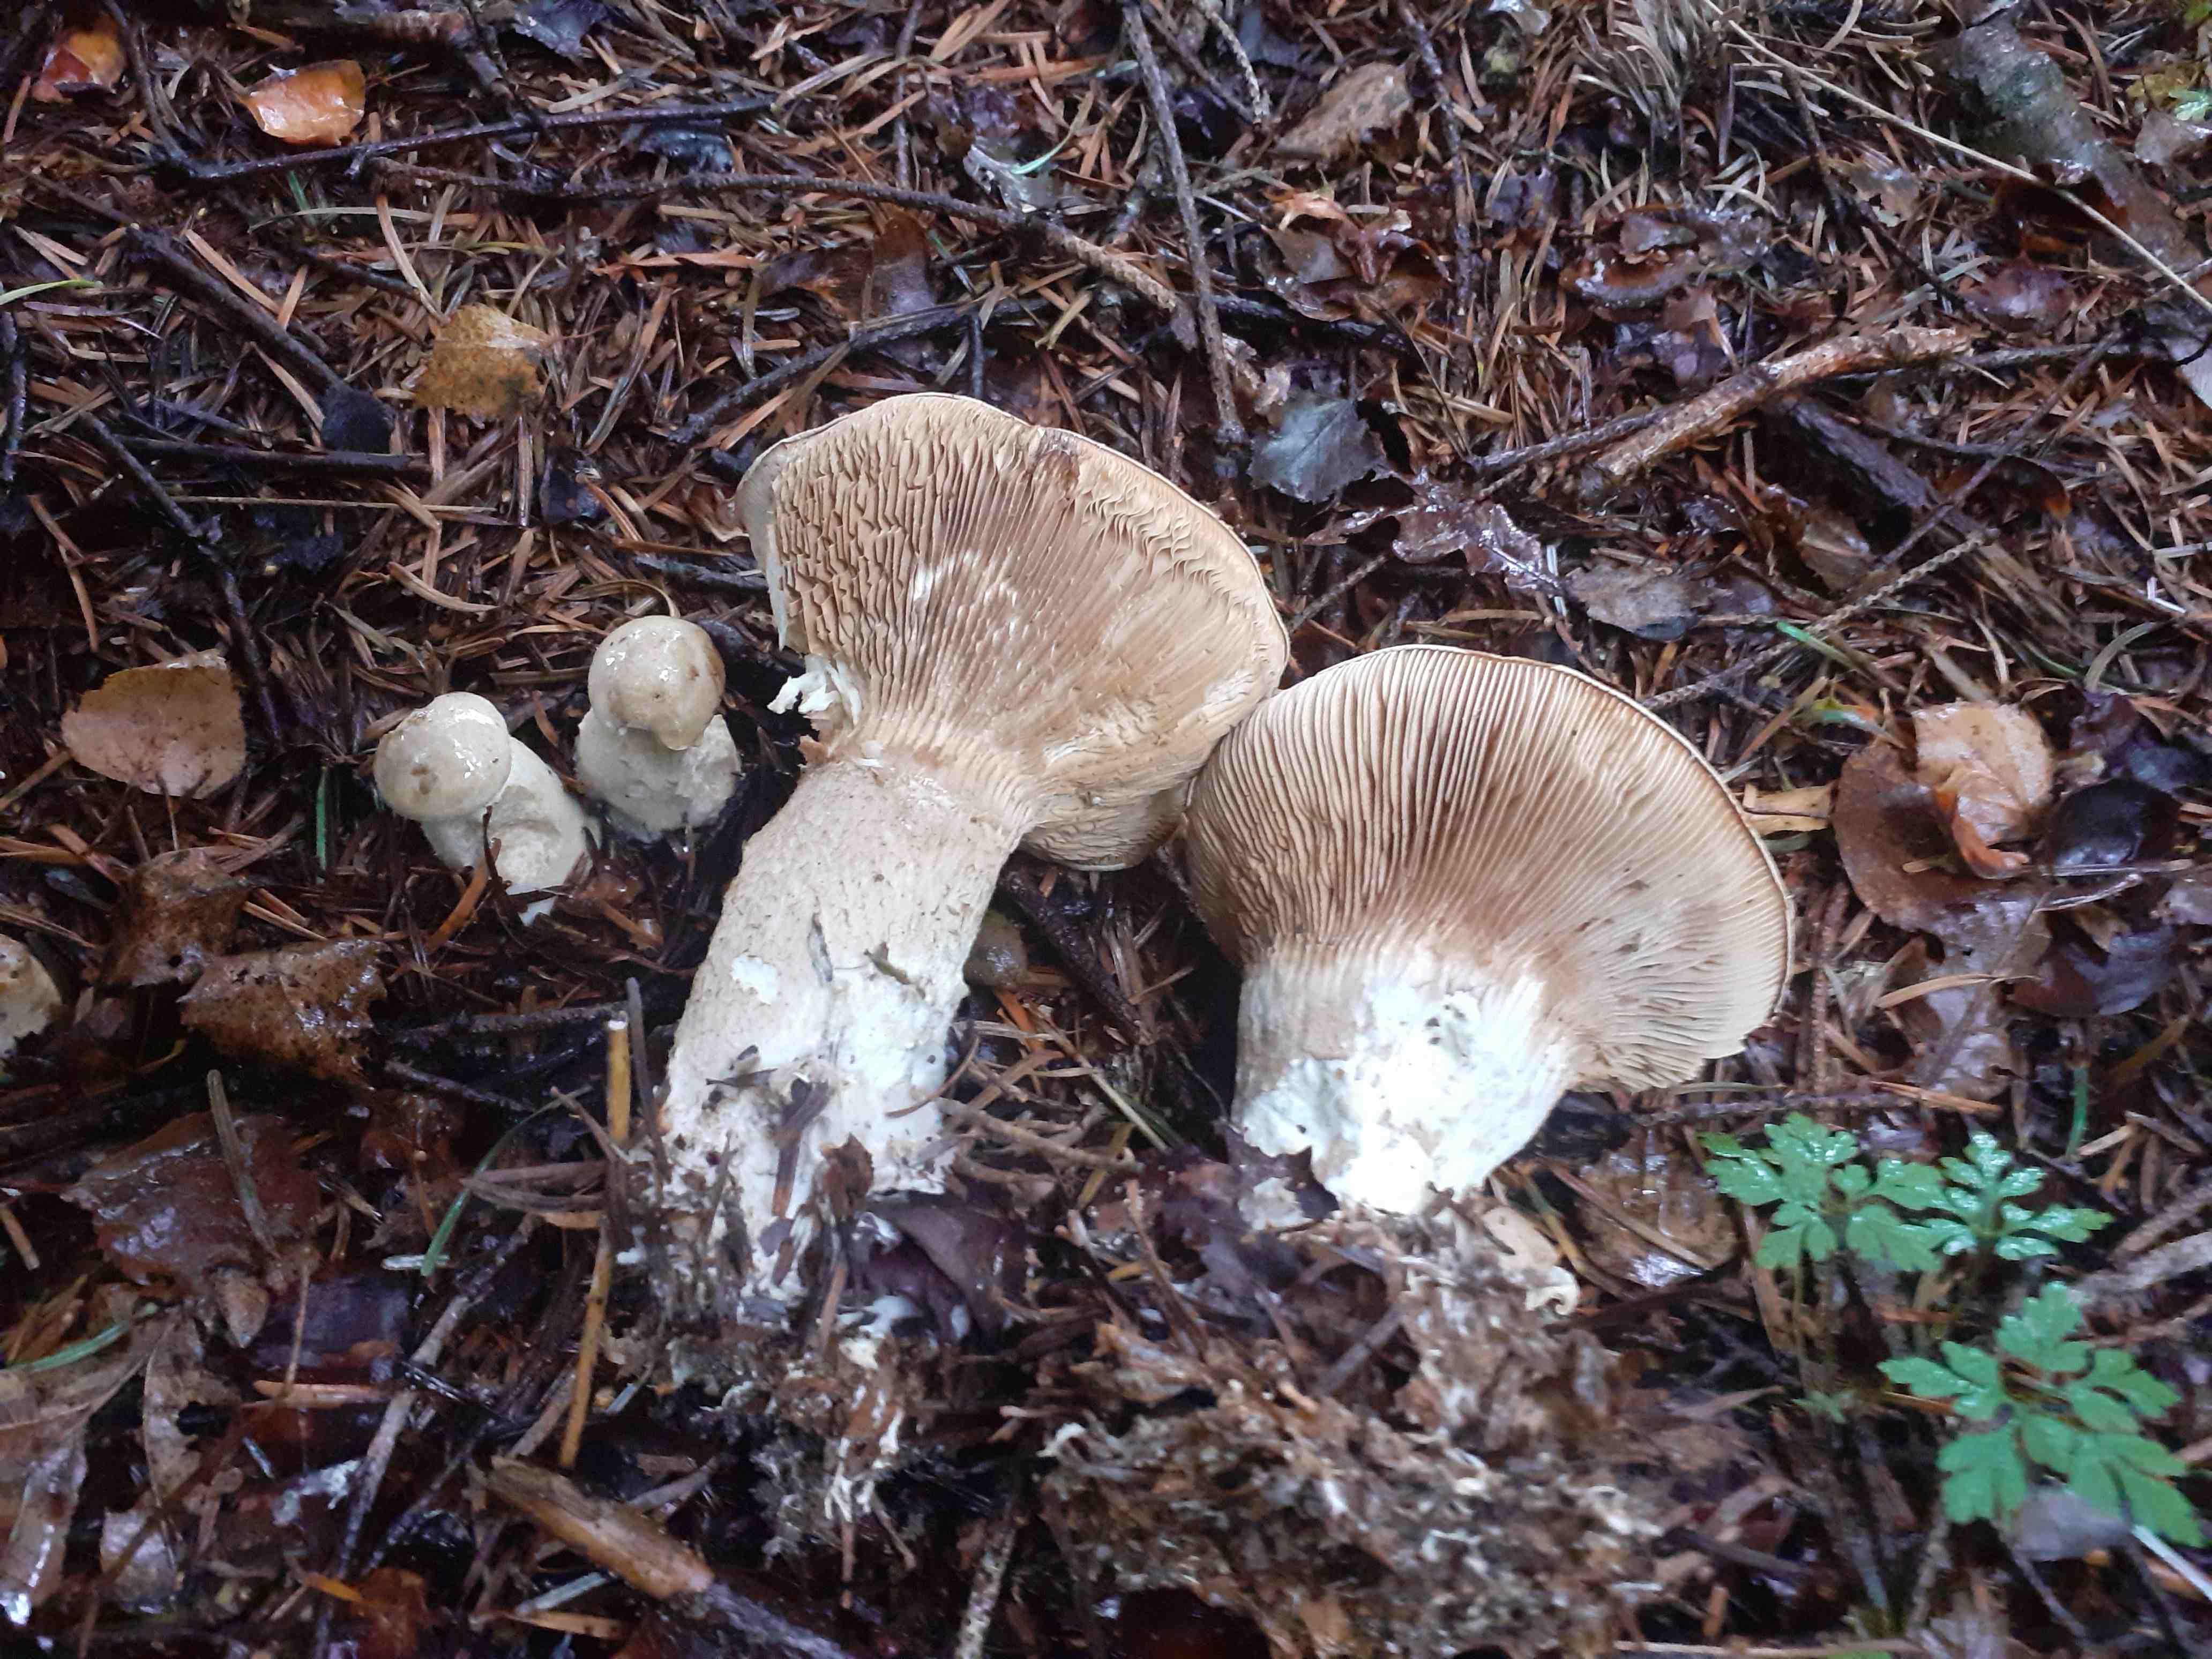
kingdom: Fungi
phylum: Basidiomycota
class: Agaricomycetes
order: Agaricales
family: Pseudoclitocybaceae
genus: Clitopaxillus
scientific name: Clitopaxillus fibulatus
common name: bestøvlet tragthat
